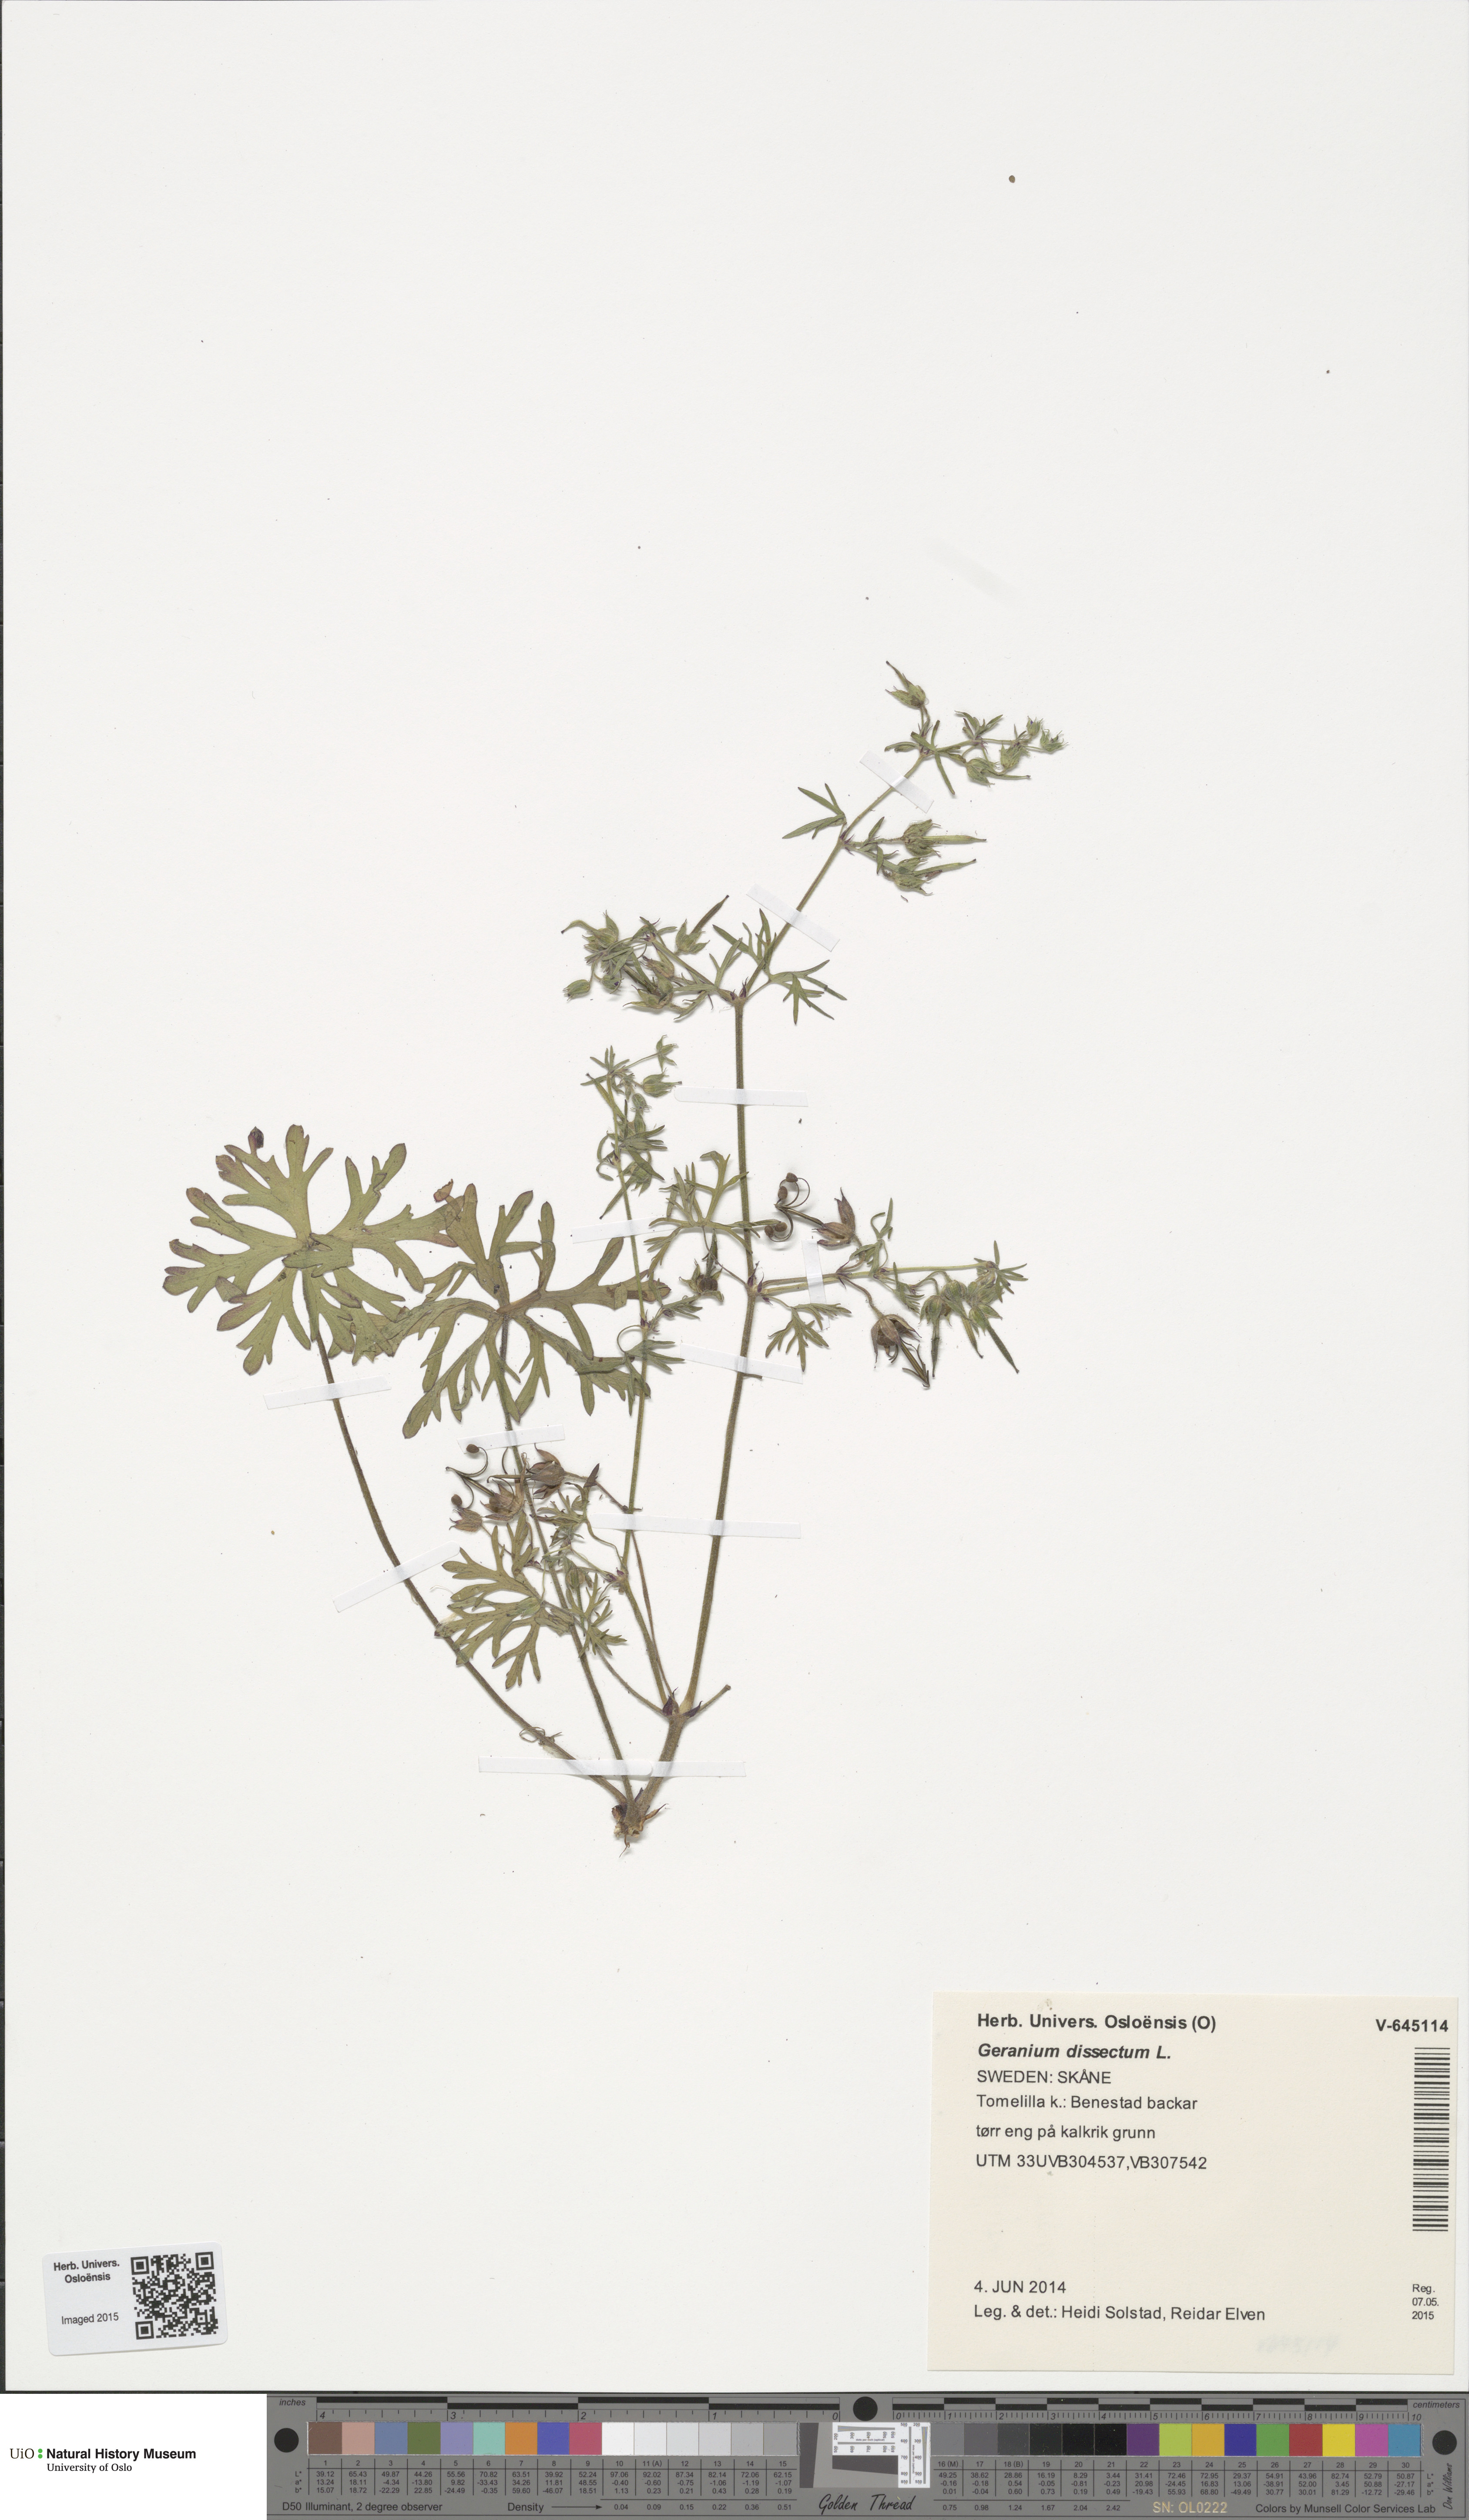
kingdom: Plantae
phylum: Tracheophyta
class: Magnoliopsida
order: Geraniales
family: Geraniaceae
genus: Geranium
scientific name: Geranium dissectum
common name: Cut-leaved crane's-bill
